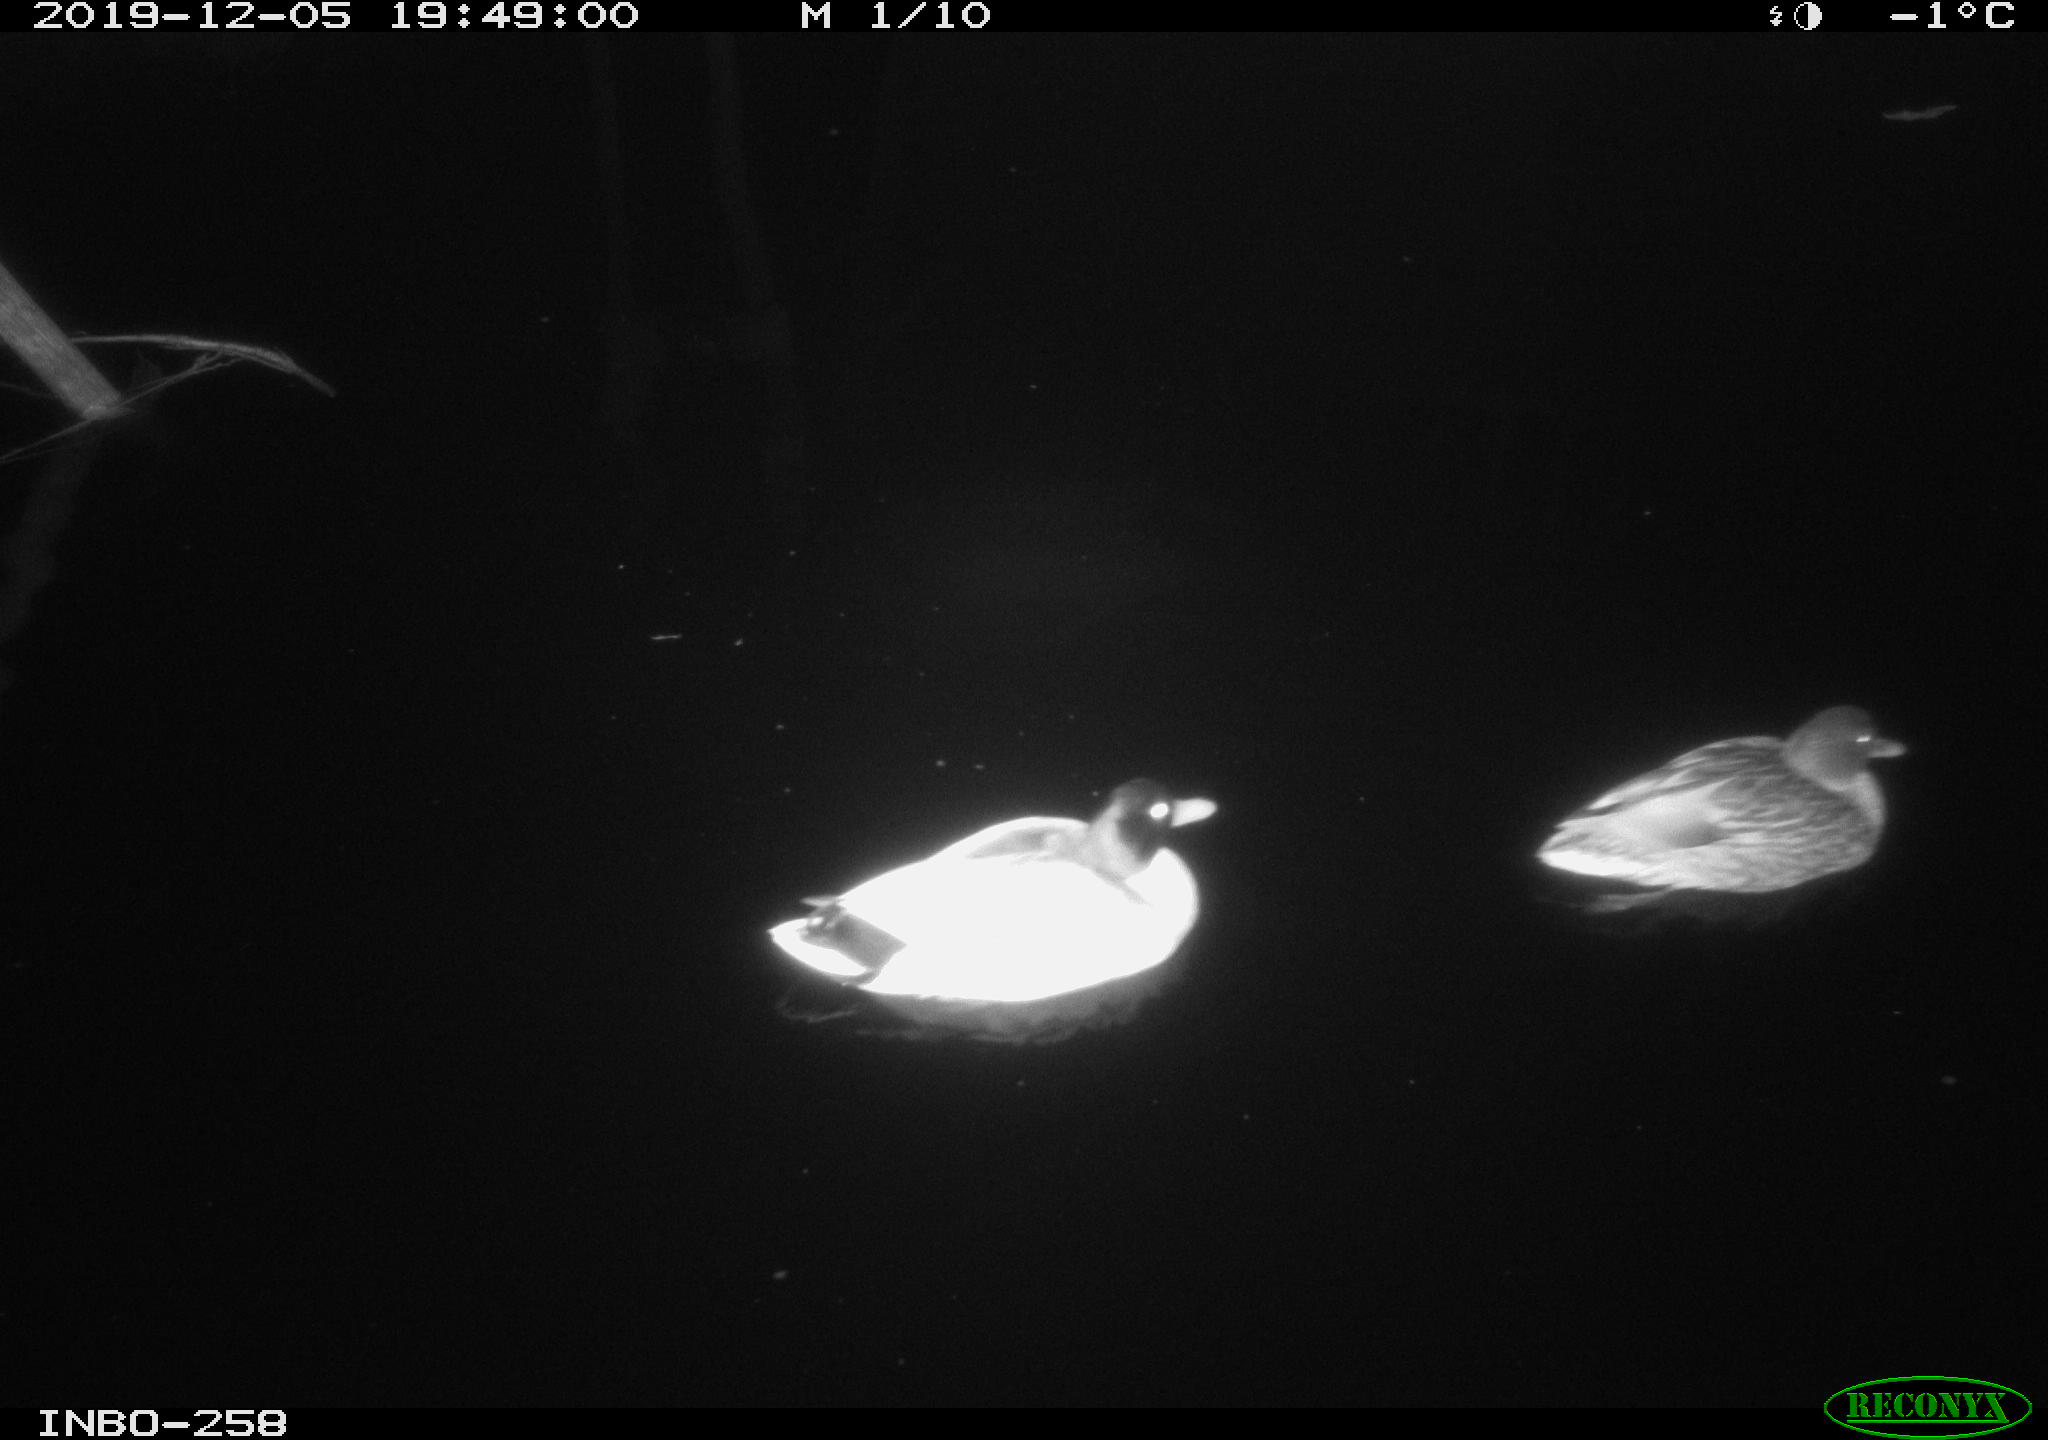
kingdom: Animalia
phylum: Chordata
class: Aves
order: Anseriformes
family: Anatidae
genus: Anas
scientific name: Anas platyrhynchos
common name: Mallard
